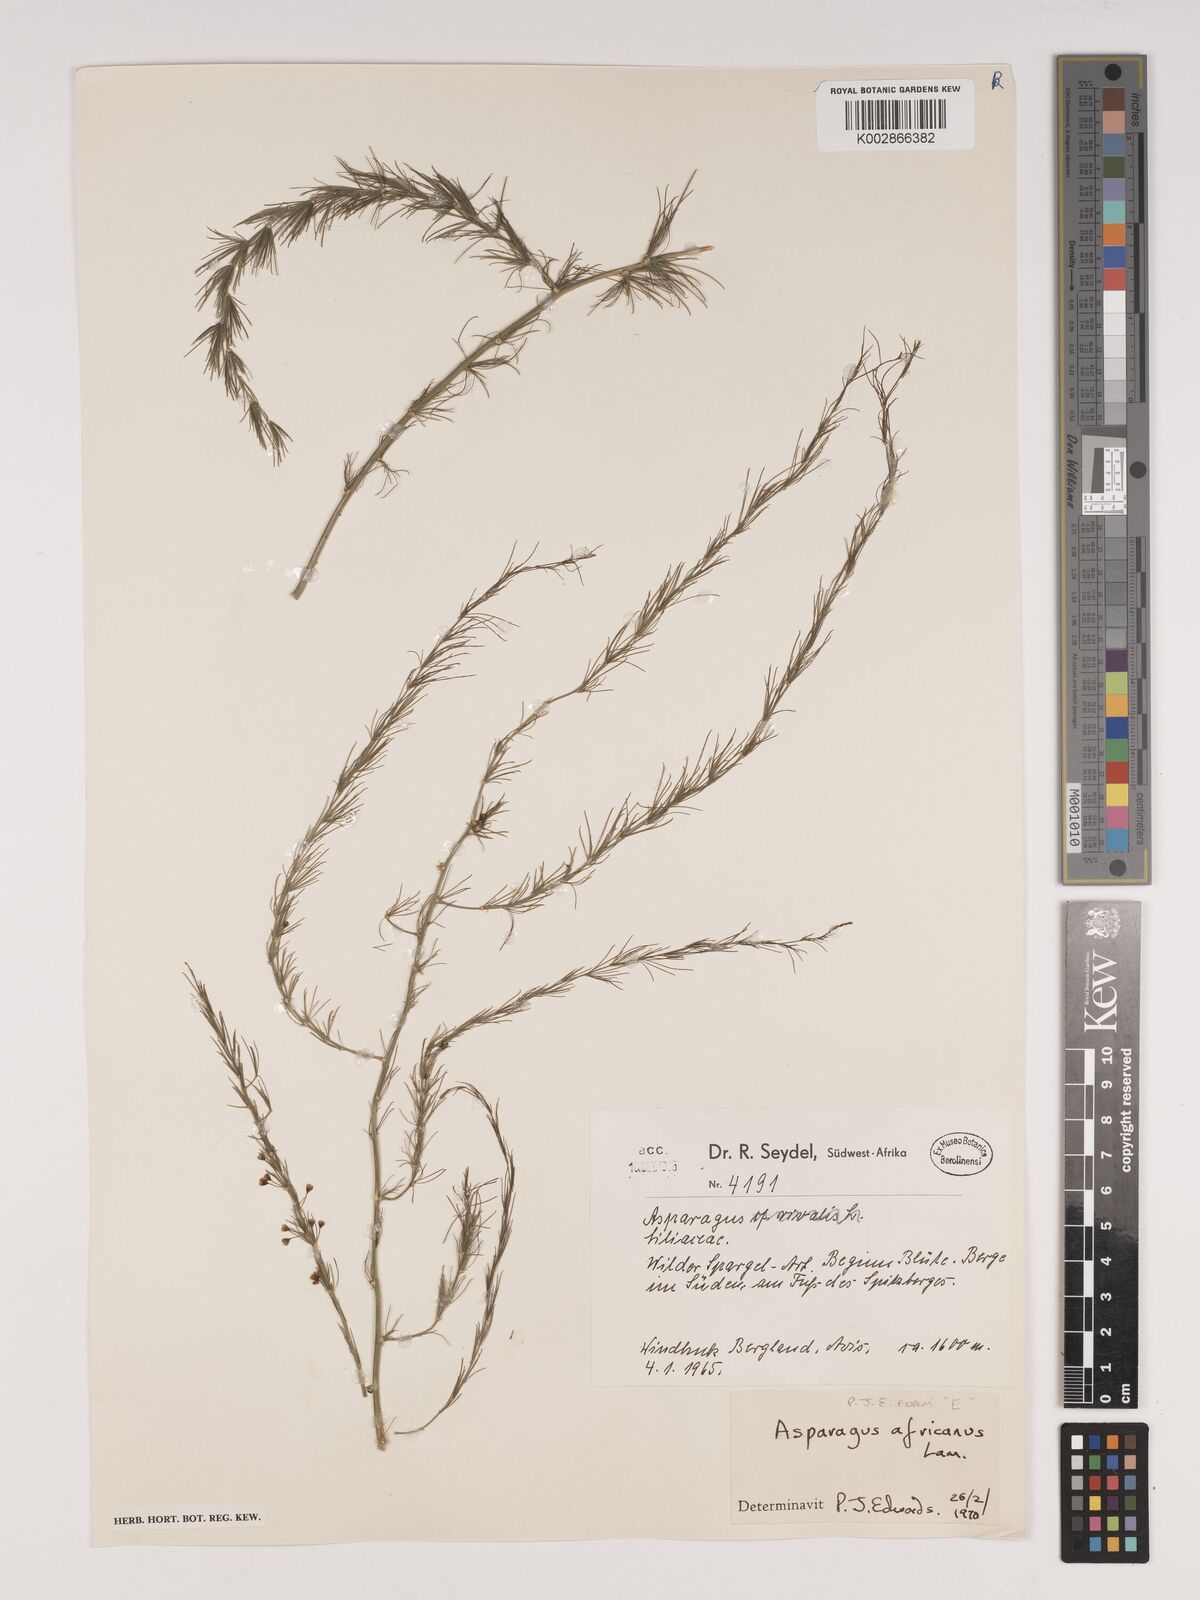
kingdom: Plantae
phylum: Tracheophyta
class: Liliopsida
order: Asparagales
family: Asparagaceae
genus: Asparagus
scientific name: Asparagus africanus
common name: Asparagus-fern
